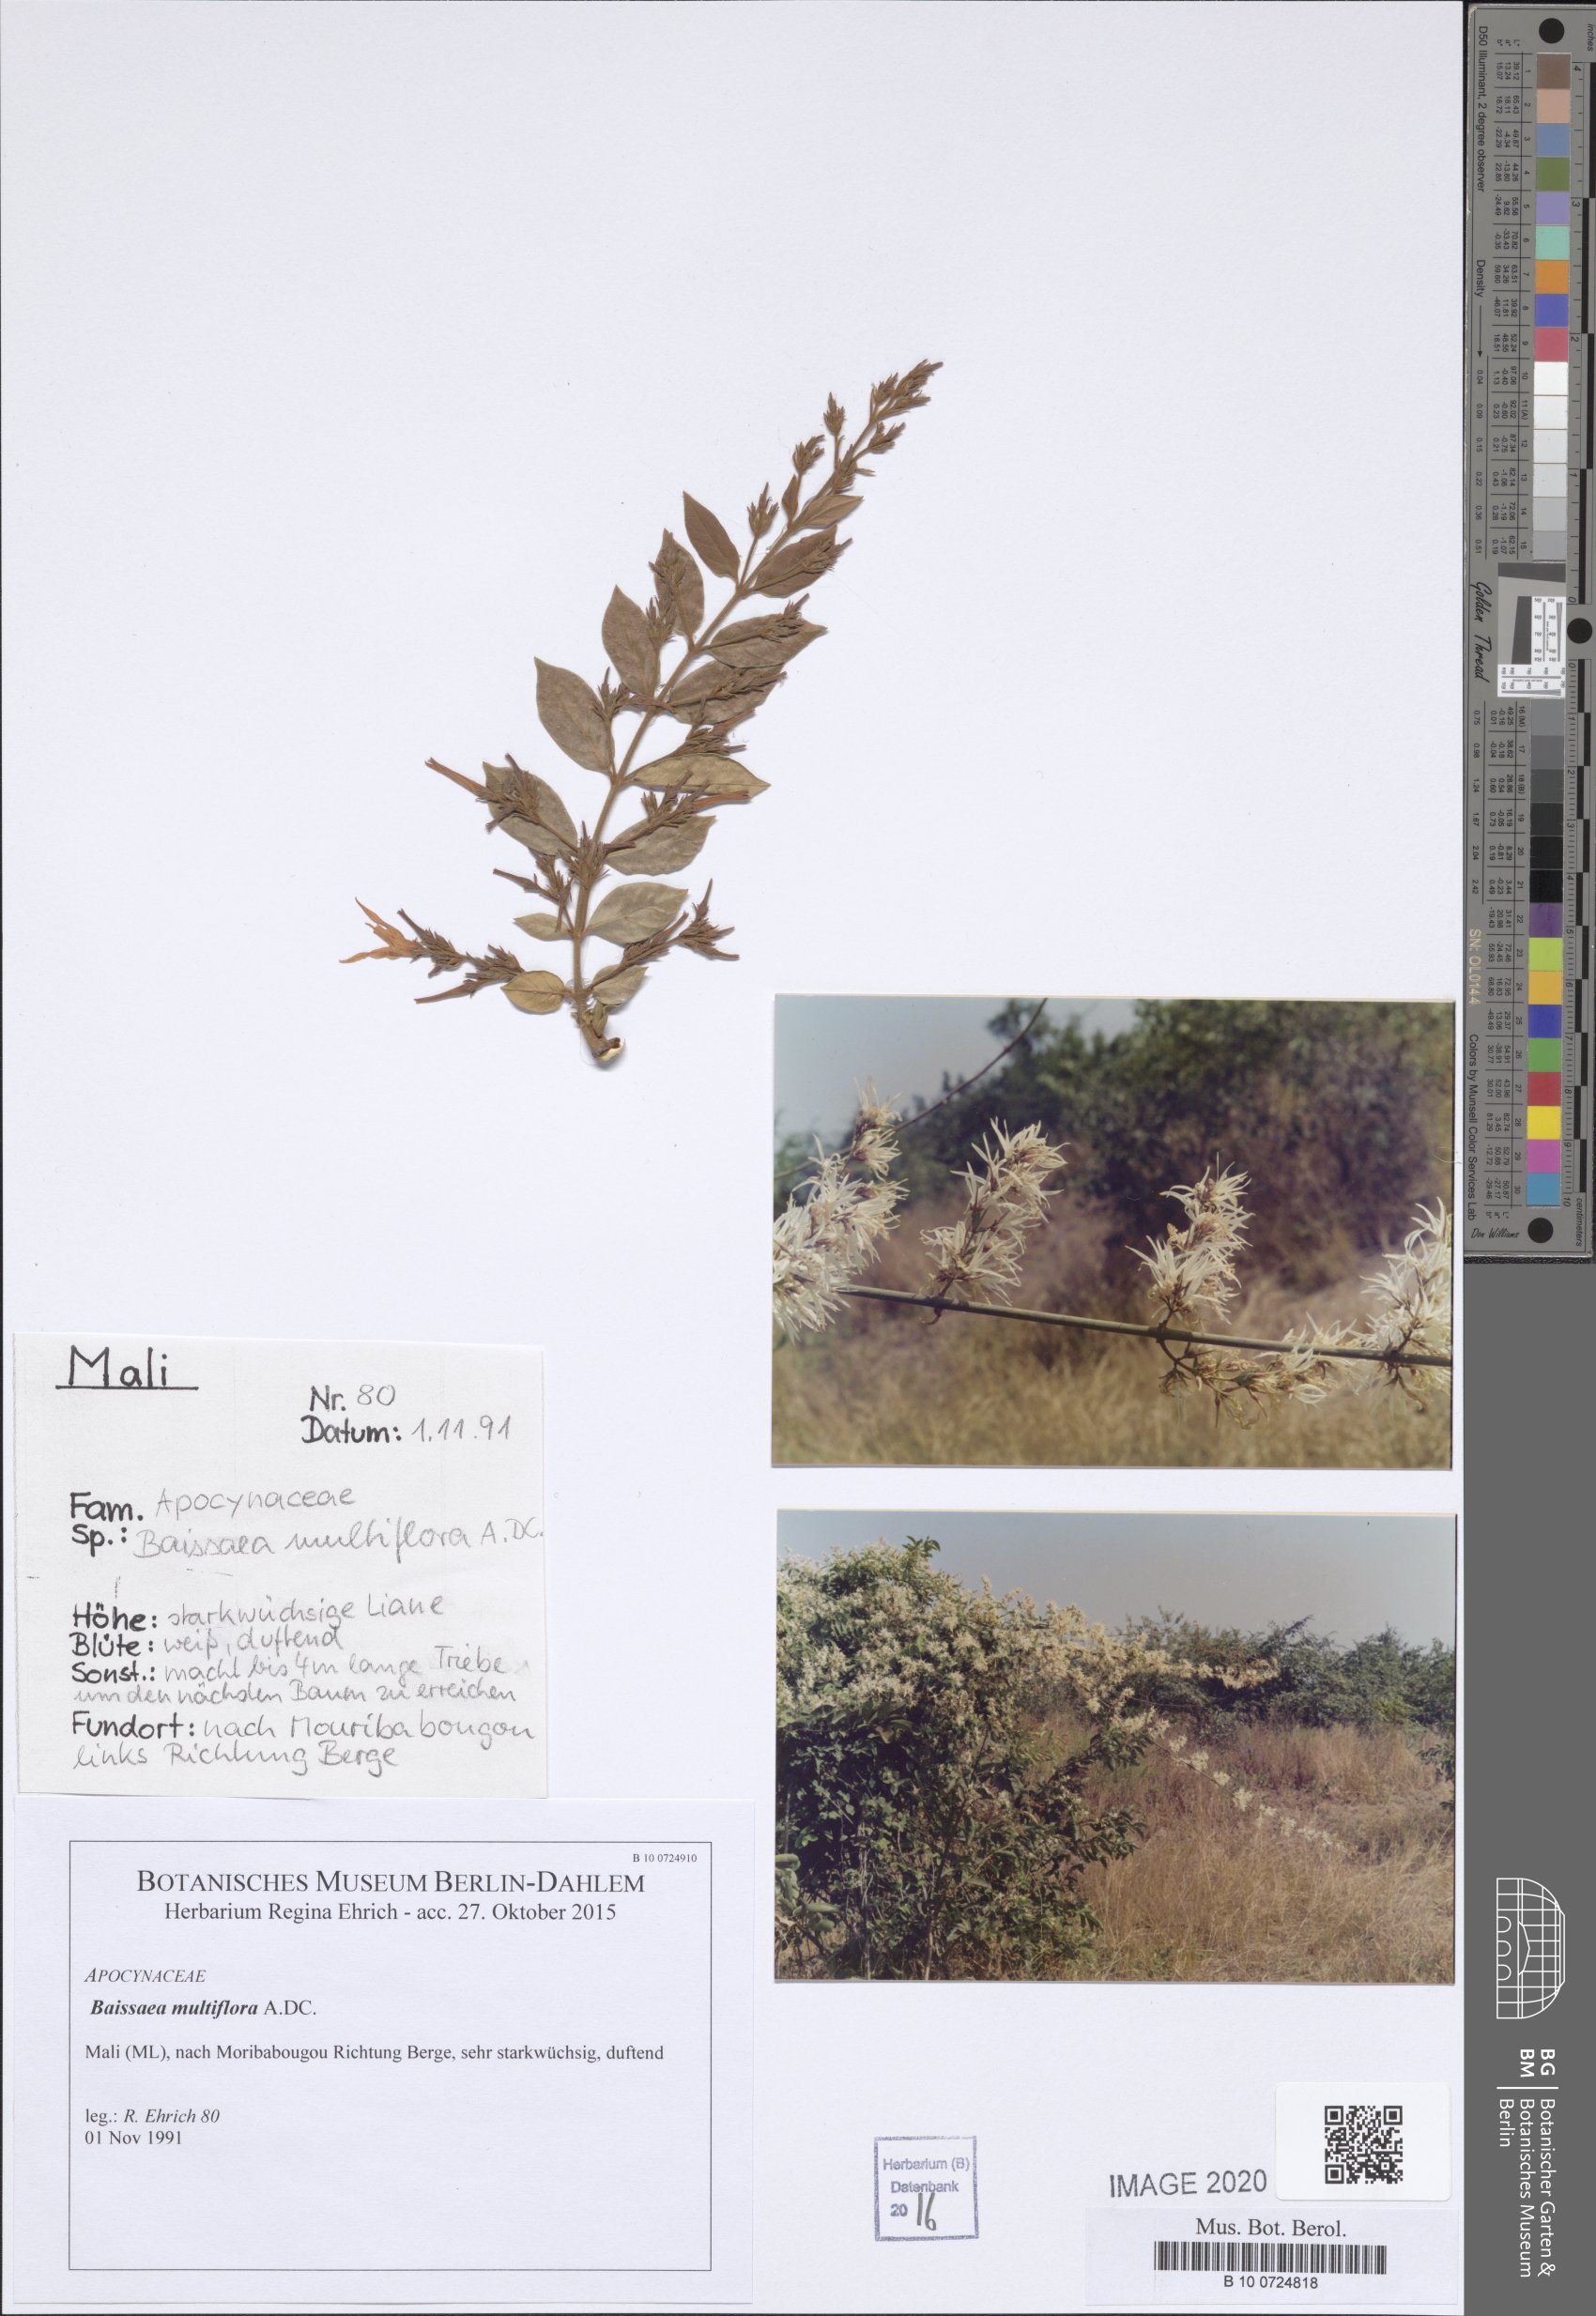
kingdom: Plantae
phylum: Tracheophyta
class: Magnoliopsida
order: Fabales
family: Fabaceae
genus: Crotalaria
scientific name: Crotalaria goreensis
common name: Gambia-pea
